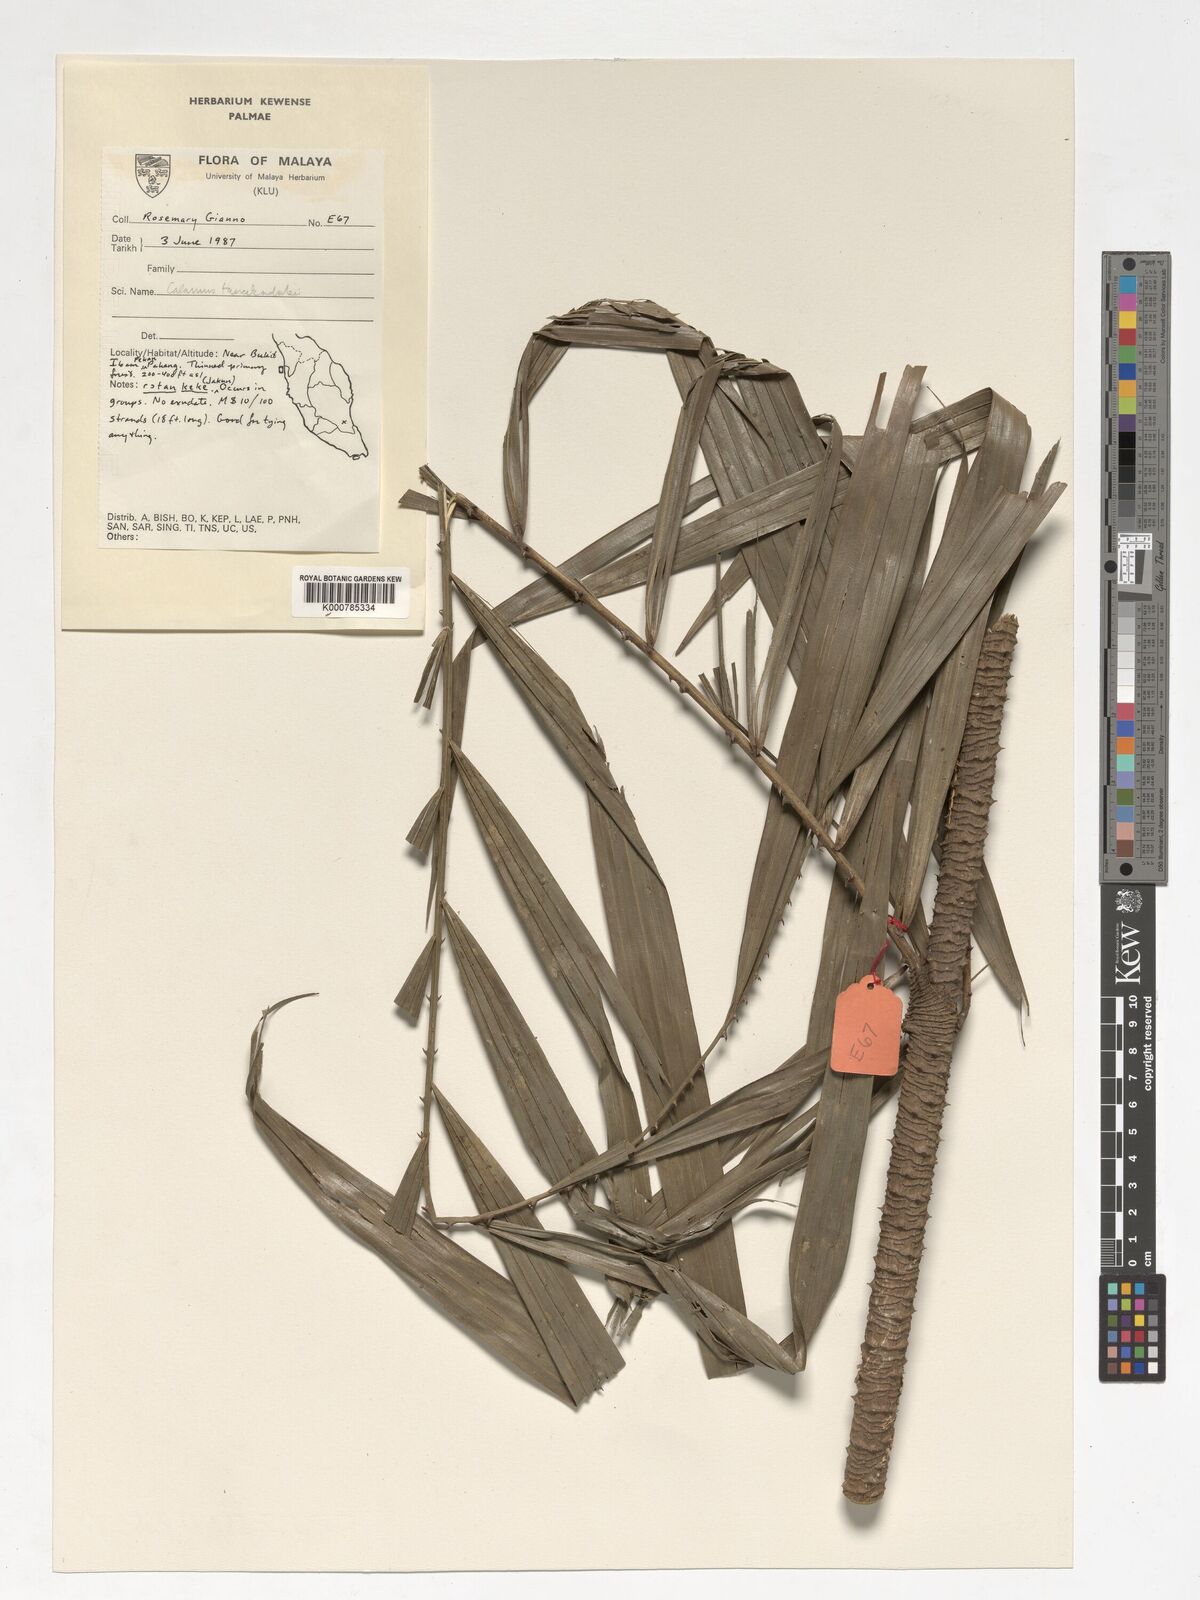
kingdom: Plantae
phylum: Tracheophyta
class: Liliopsida
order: Arecales
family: Arecaceae
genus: Calamus
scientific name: Calamus ruvidus
